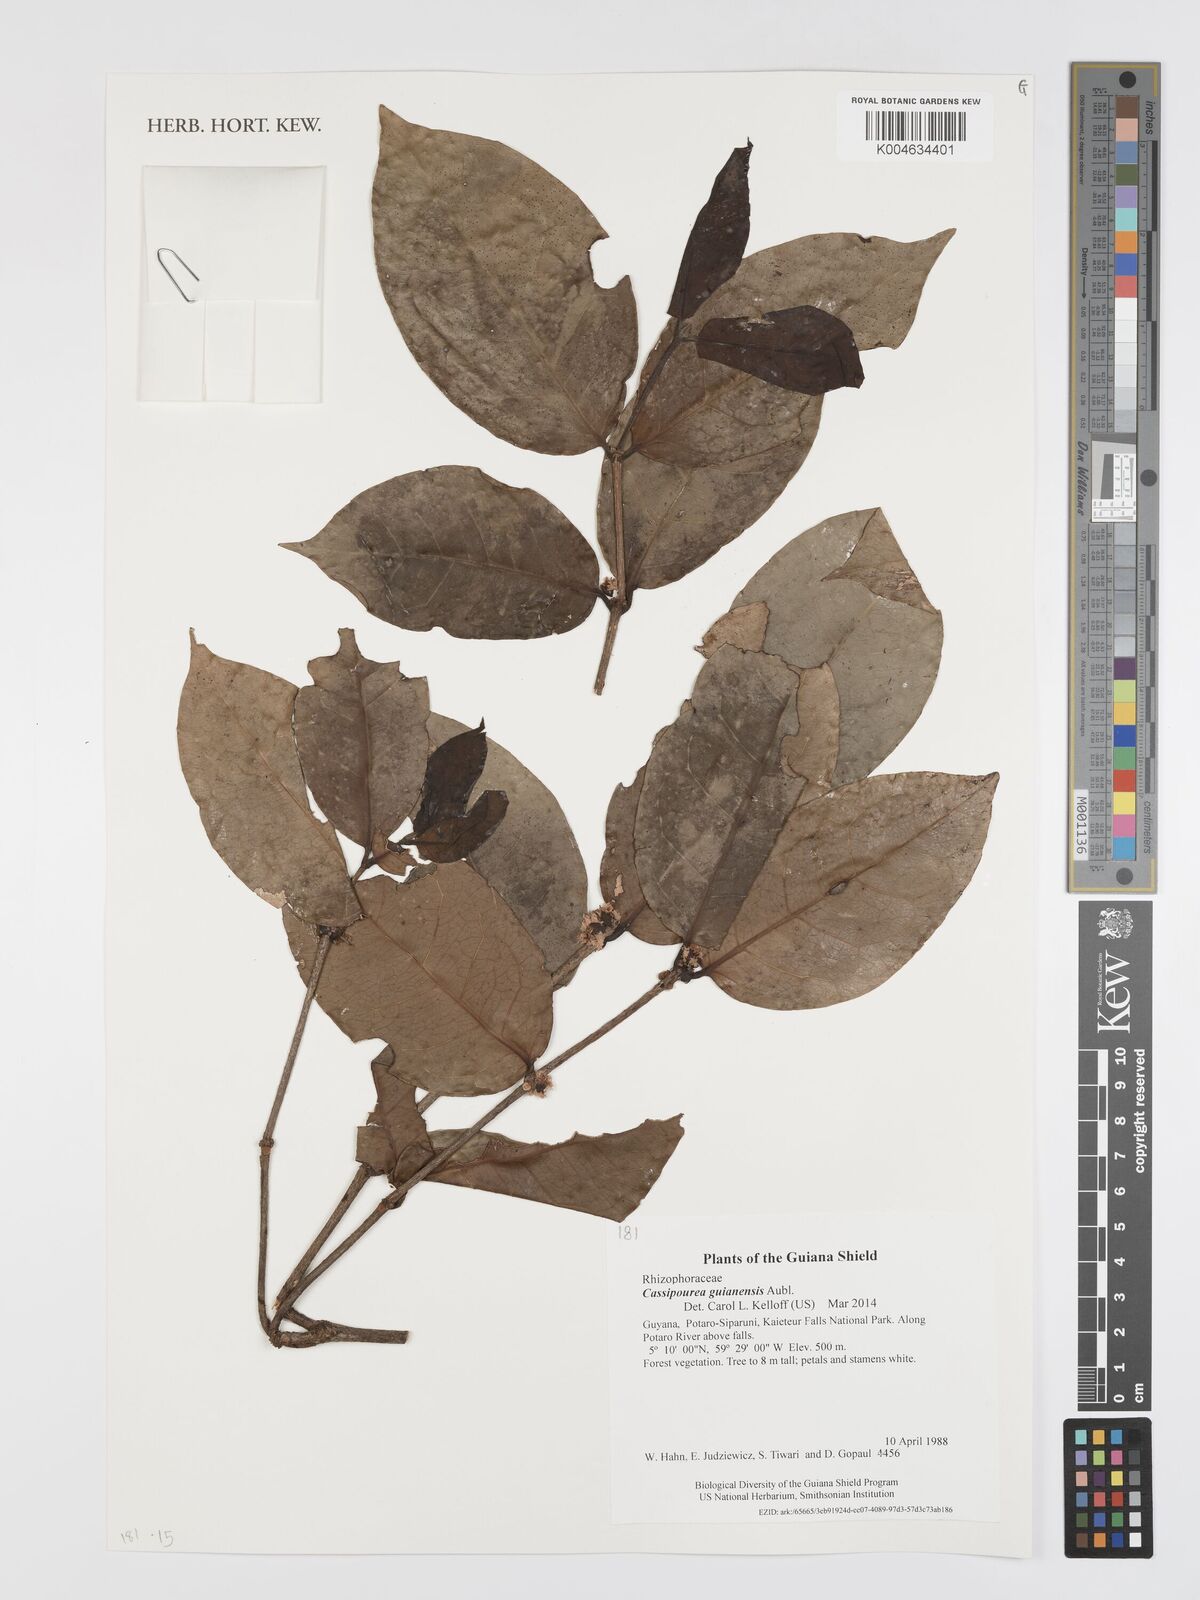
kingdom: Plantae
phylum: Tracheophyta
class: Magnoliopsida
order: Malpighiales
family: Rhizophoraceae
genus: Cassipourea
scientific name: Cassipourea guianensis
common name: Bastard waterwood
